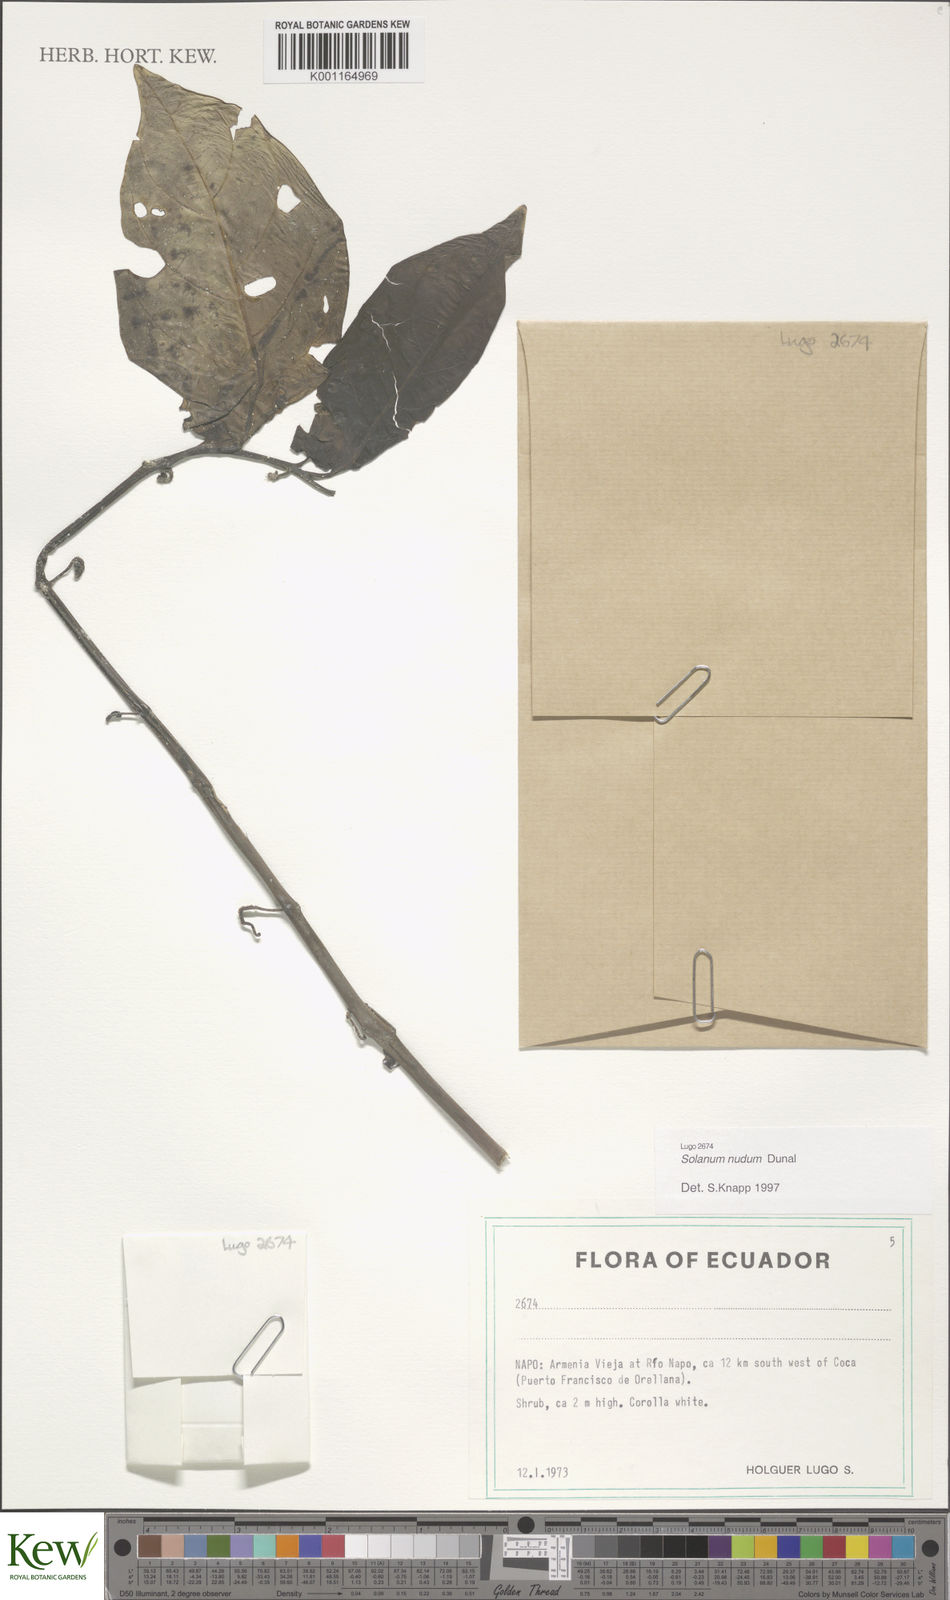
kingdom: Plantae
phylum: Tracheophyta
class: Magnoliopsida
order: Solanales
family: Solanaceae
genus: Solanum
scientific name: Solanum nudum
